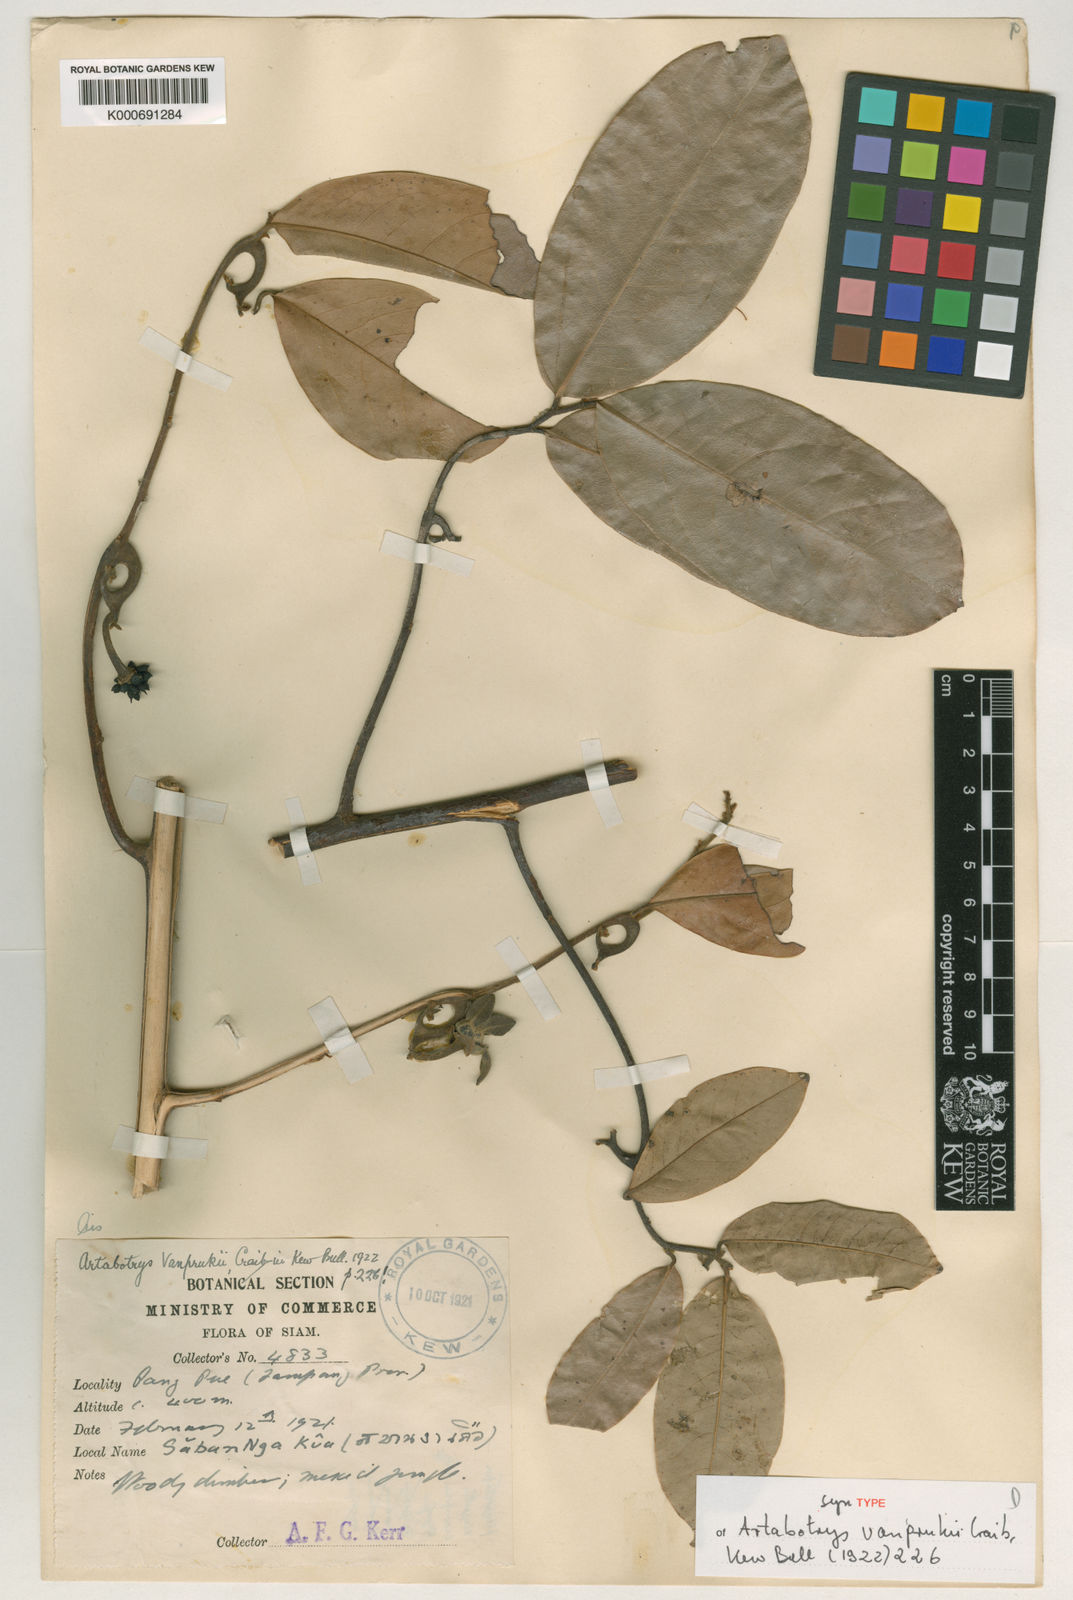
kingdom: Plantae
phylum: Tracheophyta
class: Magnoliopsida
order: Magnoliales
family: Annonaceae
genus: Artabotrys
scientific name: Artabotrys vanprukii
